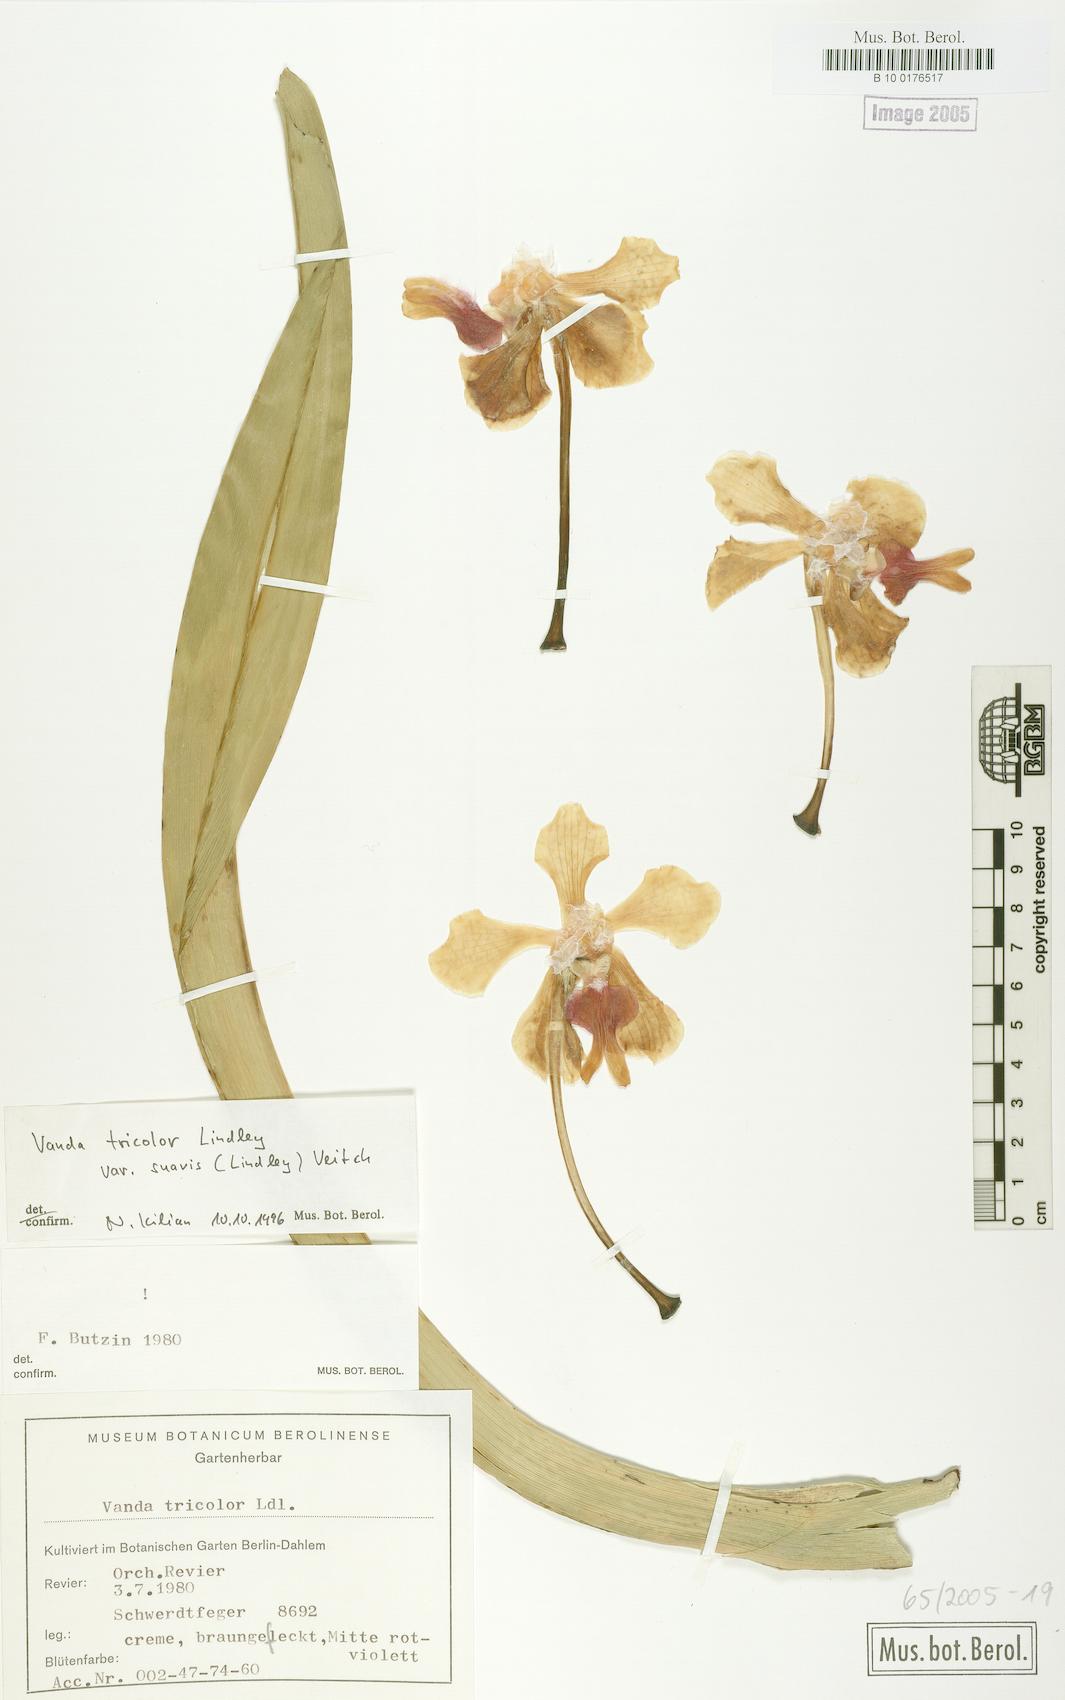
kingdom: Plantae
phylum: Tracheophyta
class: Liliopsida
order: Asparagales
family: Orchidaceae
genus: Vanda
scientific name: Vanda tricolor
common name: Orchid
